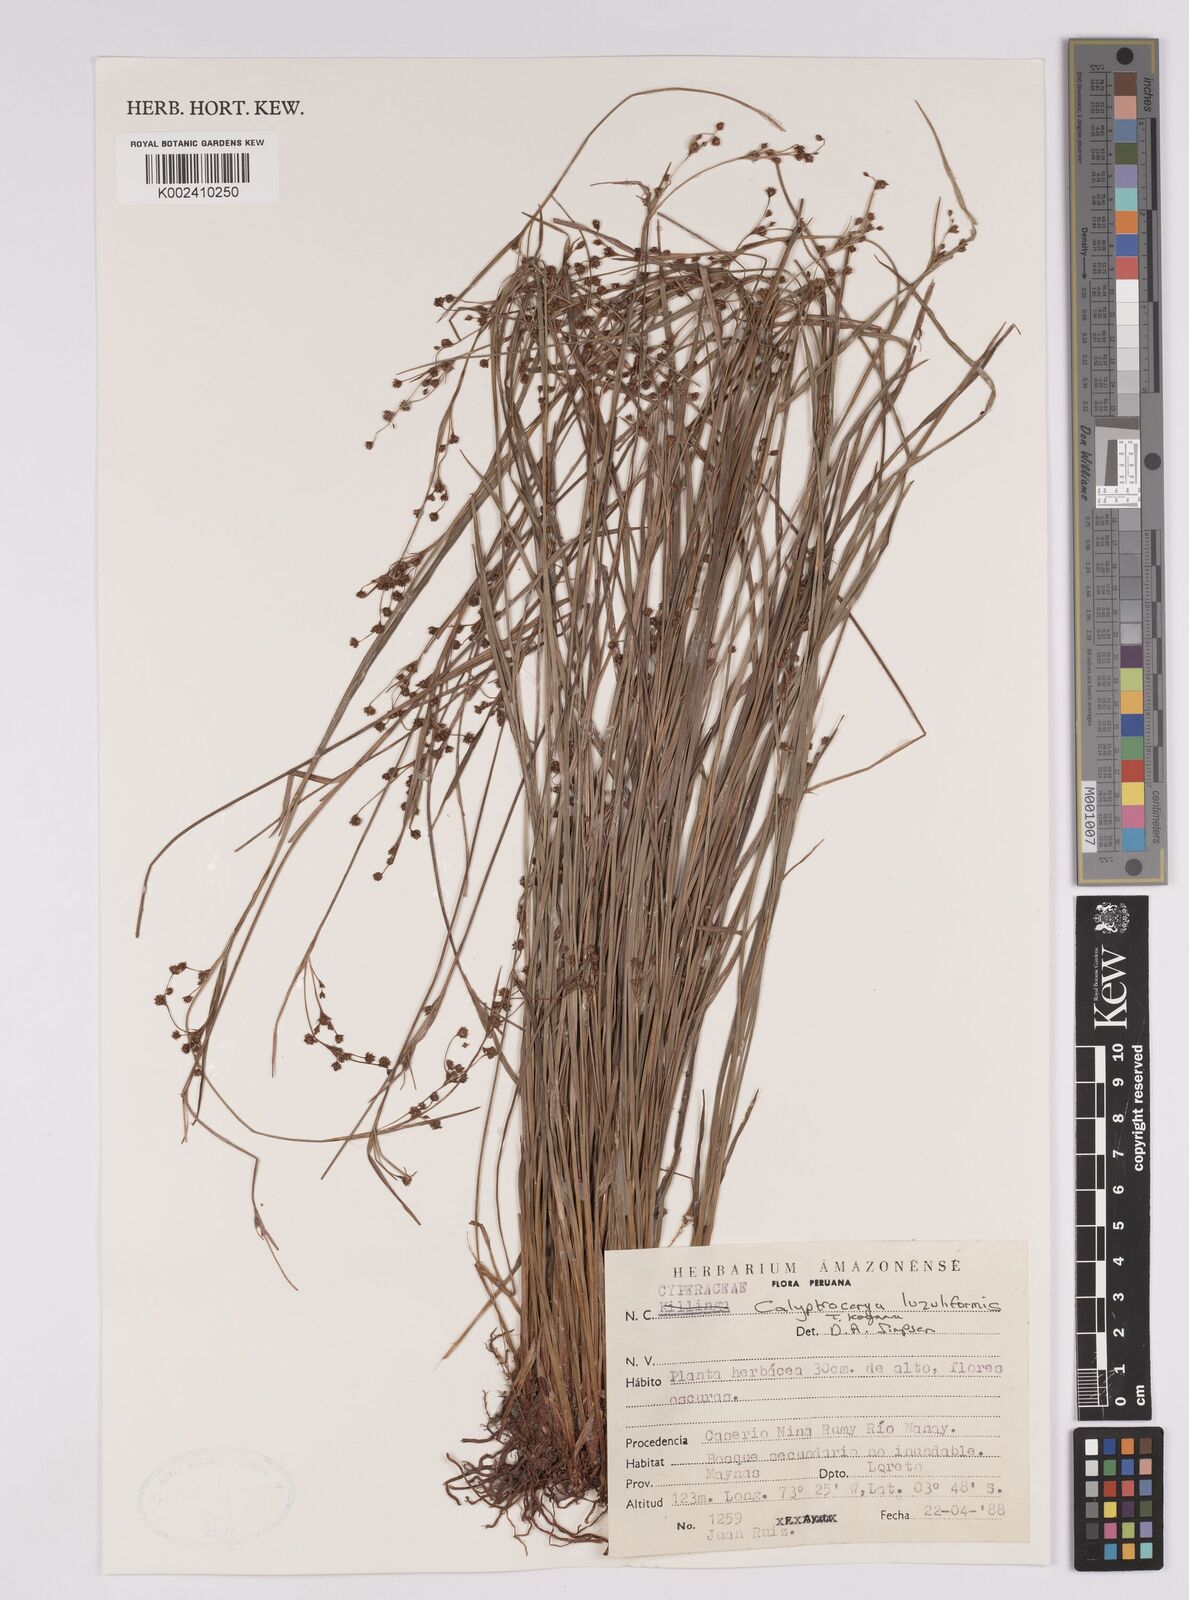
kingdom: Plantae
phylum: Tracheophyta
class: Liliopsida
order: Poales
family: Cyperaceae
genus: Calyptrocarya
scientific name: Calyptrocarya luzuliformis
